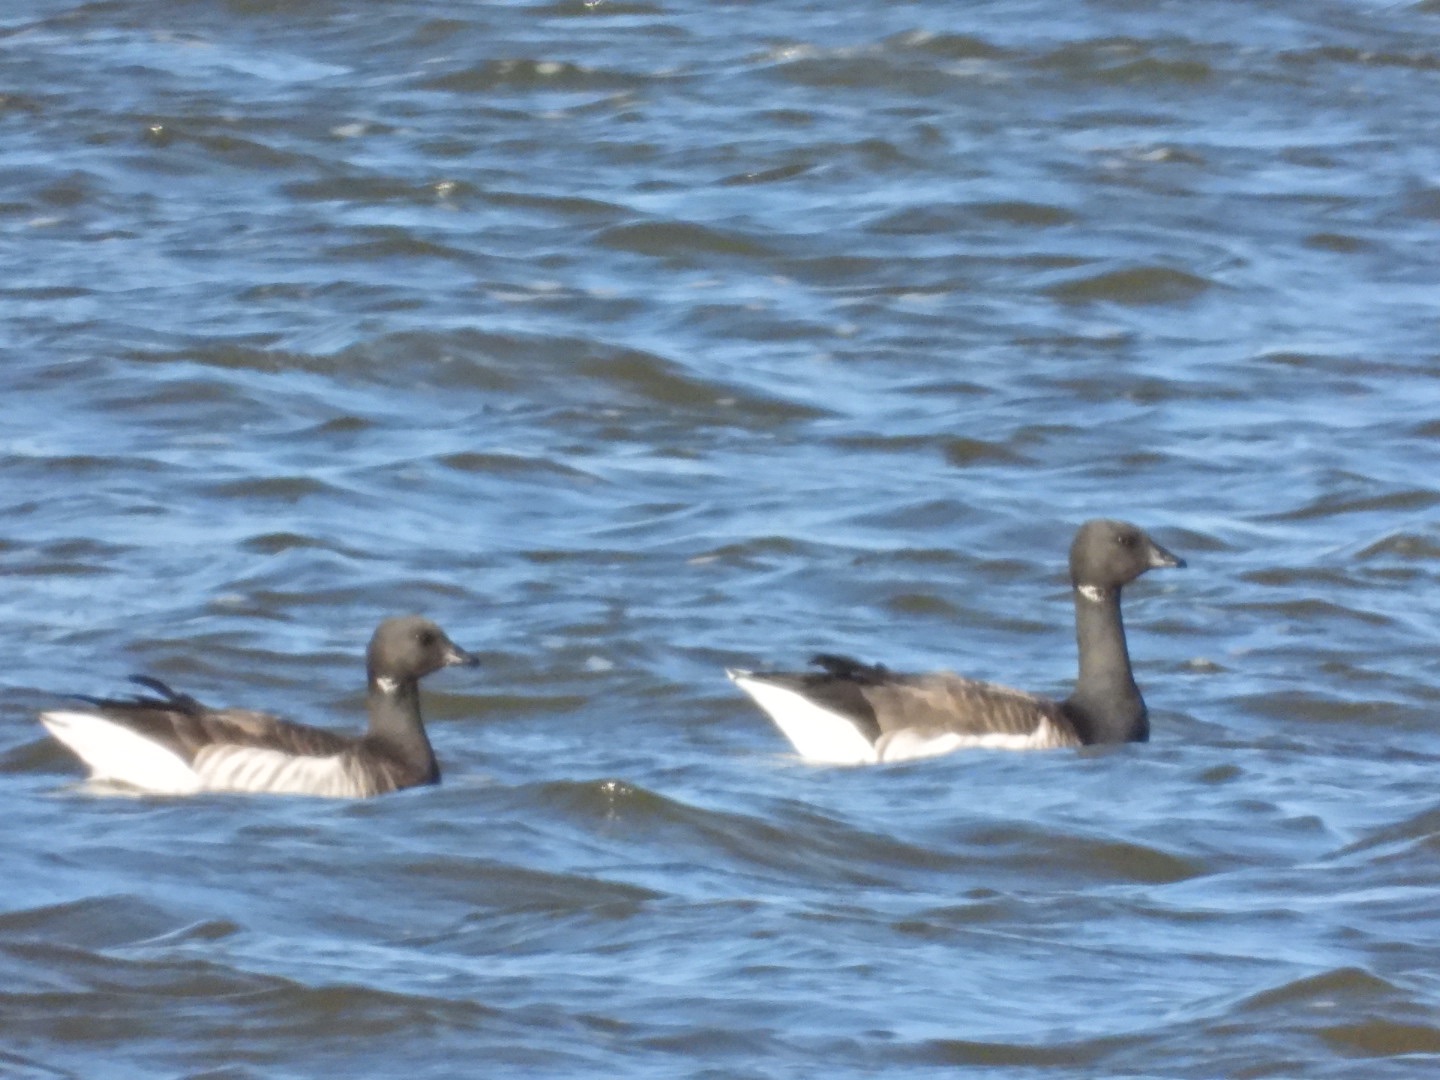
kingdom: Animalia
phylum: Chordata
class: Aves
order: Anseriformes
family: Anatidae
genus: Branta
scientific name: Branta bernicla
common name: Lysbuget knortegås
